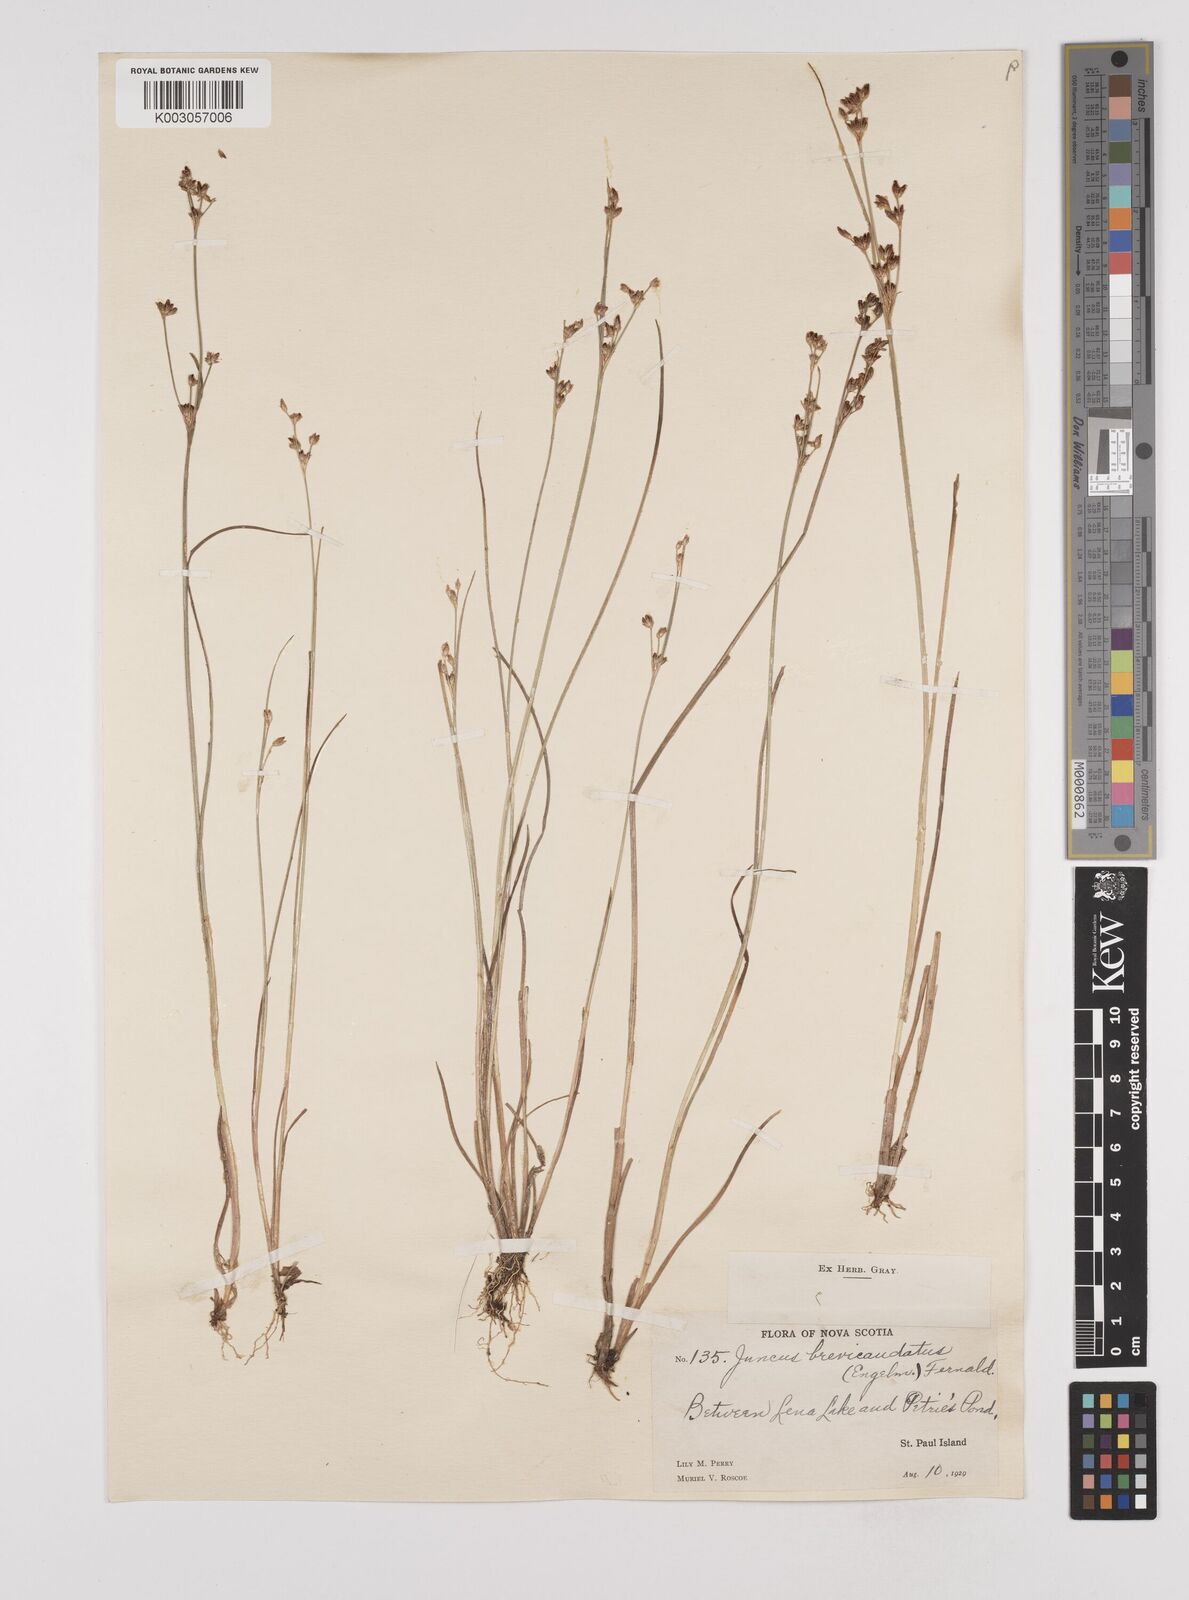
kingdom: Plantae
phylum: Tracheophyta
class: Liliopsida
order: Poales
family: Juncaceae
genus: Juncus
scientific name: Juncus brevicaudatus
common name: Narrow-panicle rush
